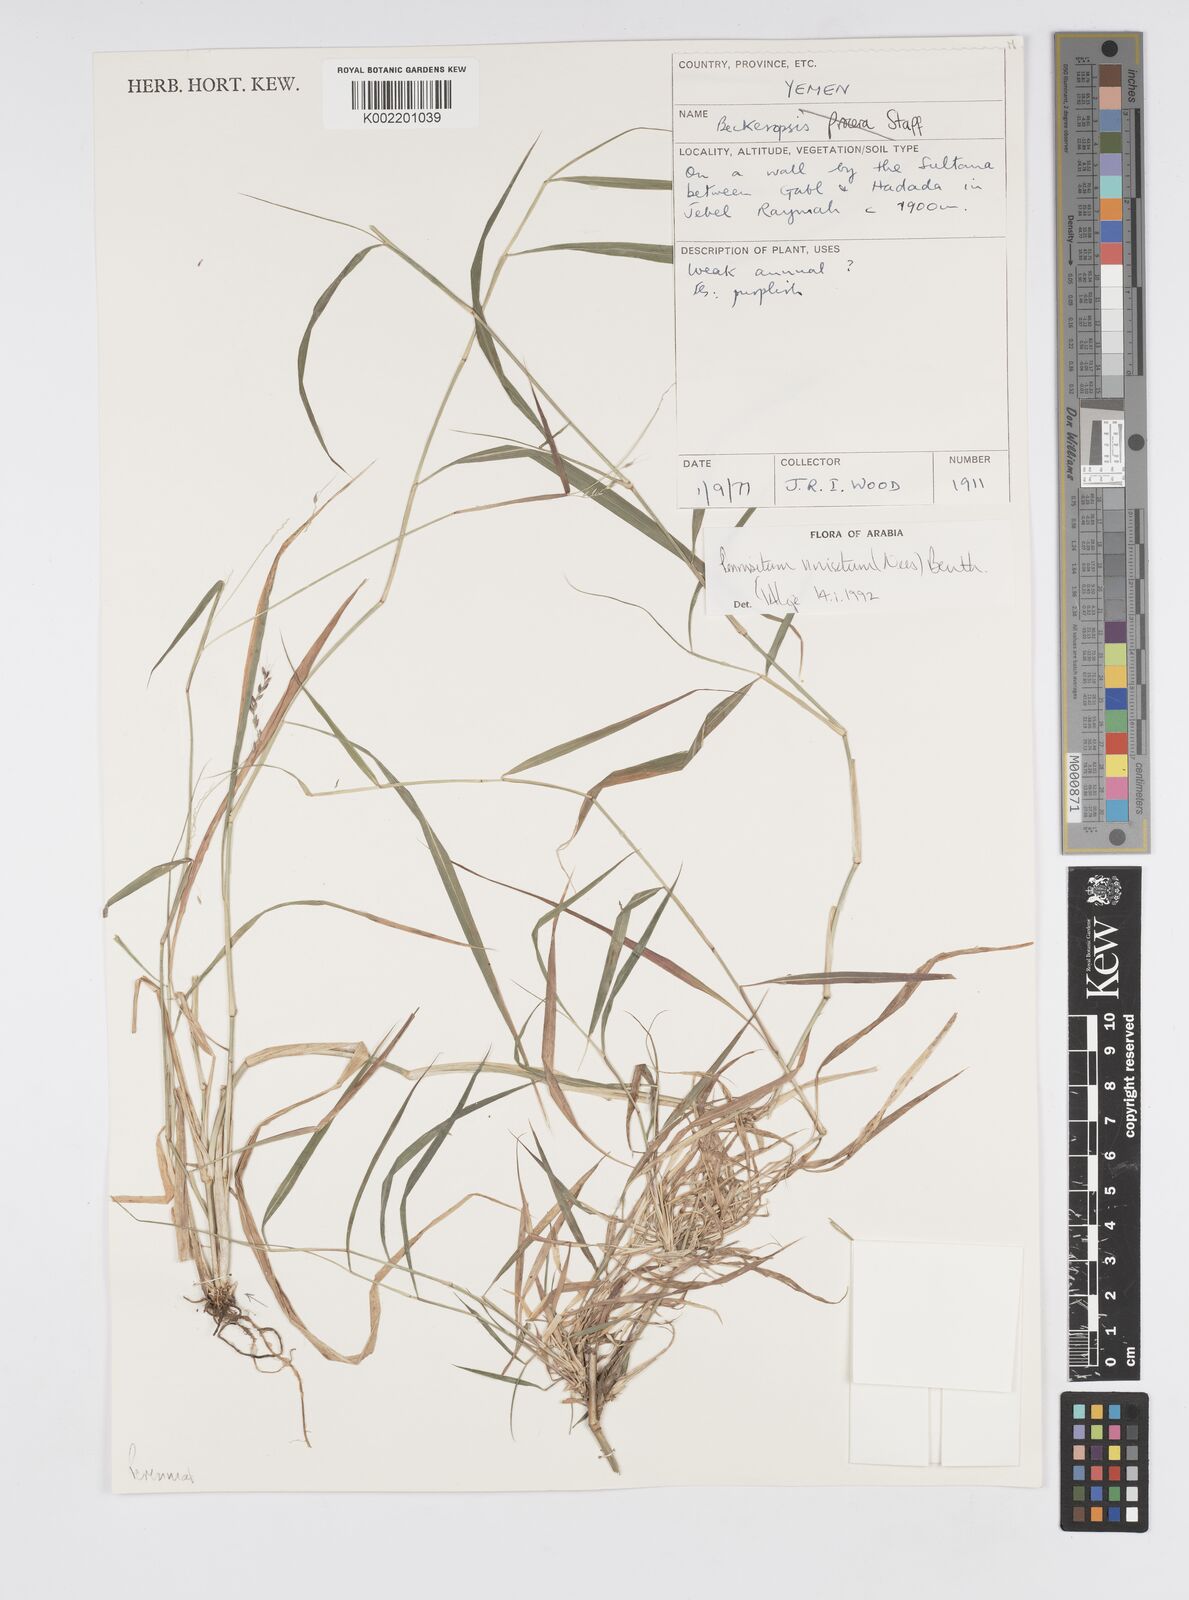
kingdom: Plantae
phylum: Tracheophyta
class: Liliopsida
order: Poales
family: Poaceae
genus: Cenchrus
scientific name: Cenchrus unisetus
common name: Natal grass
